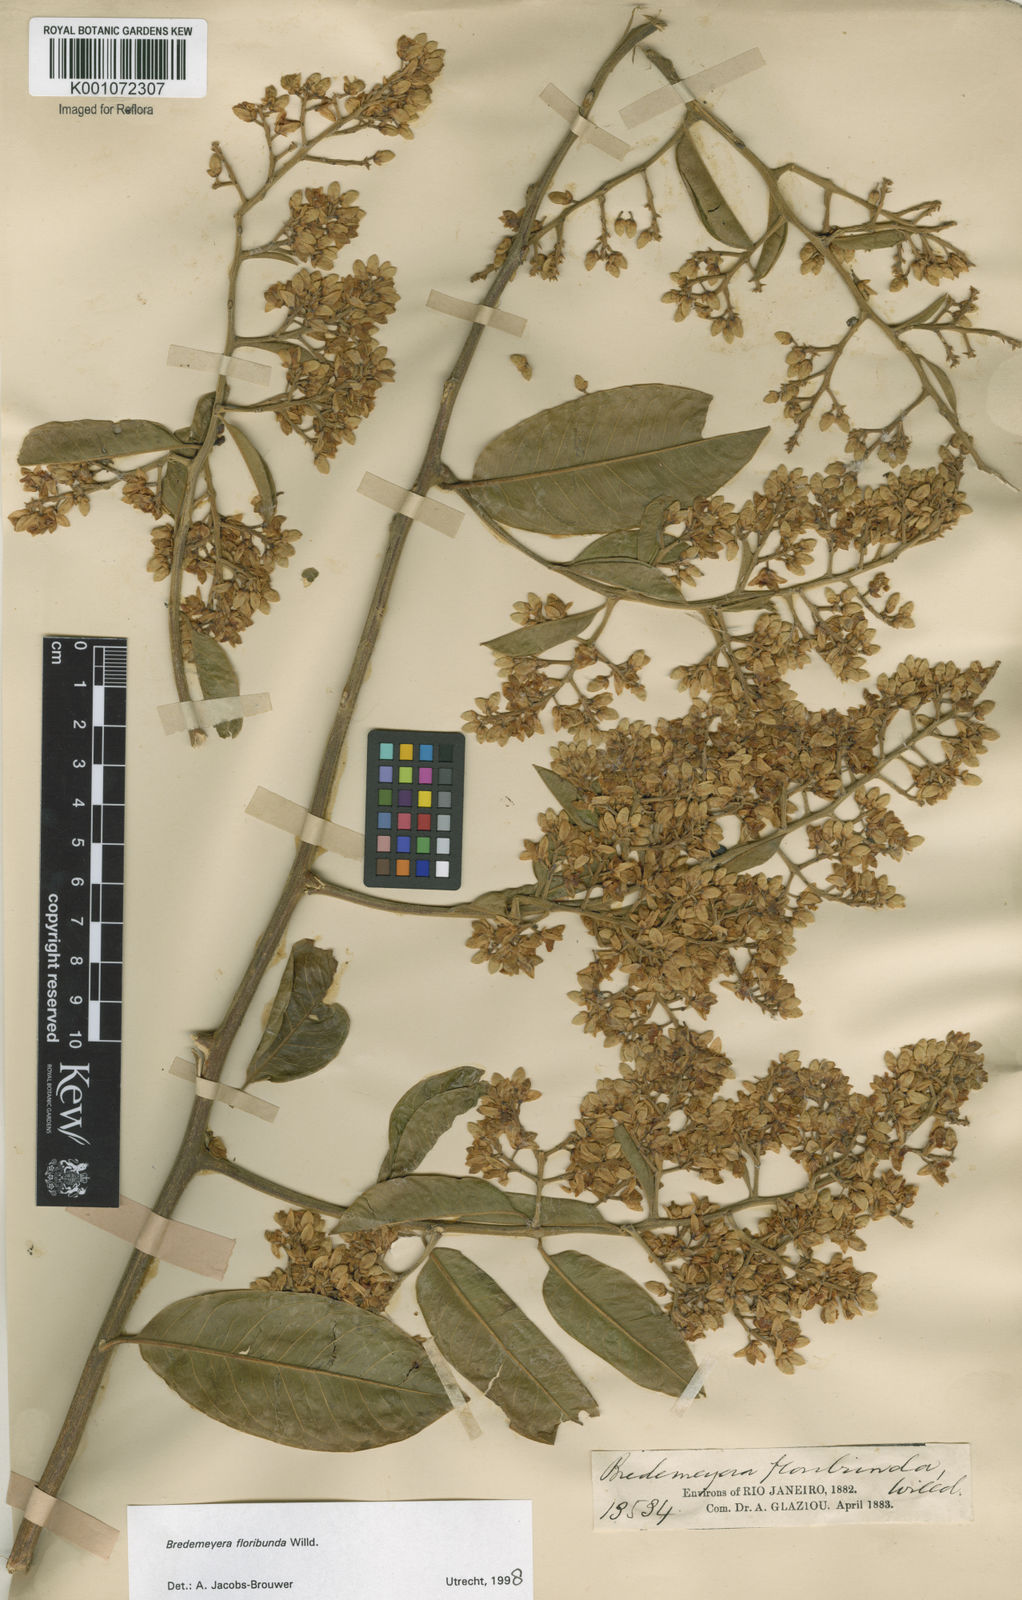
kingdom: Plantae
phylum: Tracheophyta
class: Magnoliopsida
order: Fabales
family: Polygalaceae
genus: Bredemeyera
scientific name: Bredemeyera floribunda
